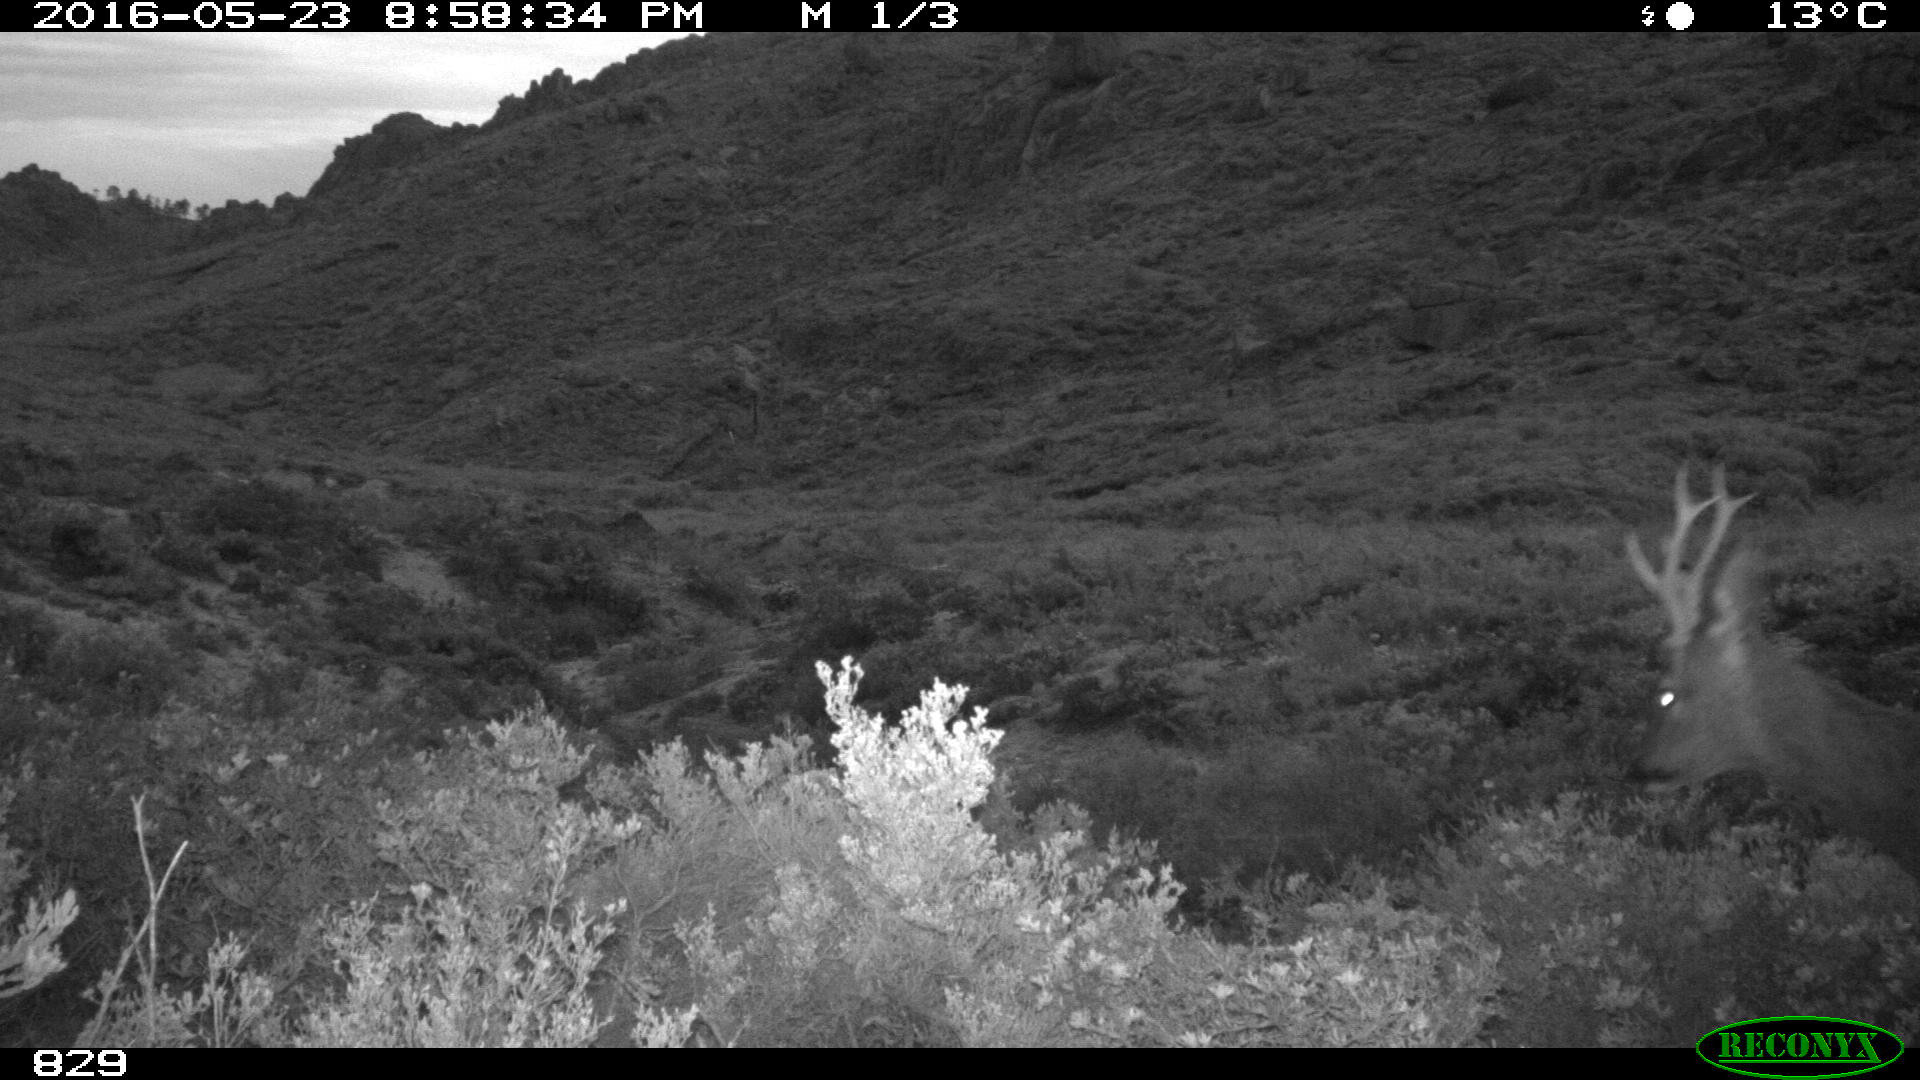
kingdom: Animalia
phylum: Chordata
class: Mammalia
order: Artiodactyla
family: Cervidae
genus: Capreolus
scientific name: Capreolus capreolus
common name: Western roe deer
